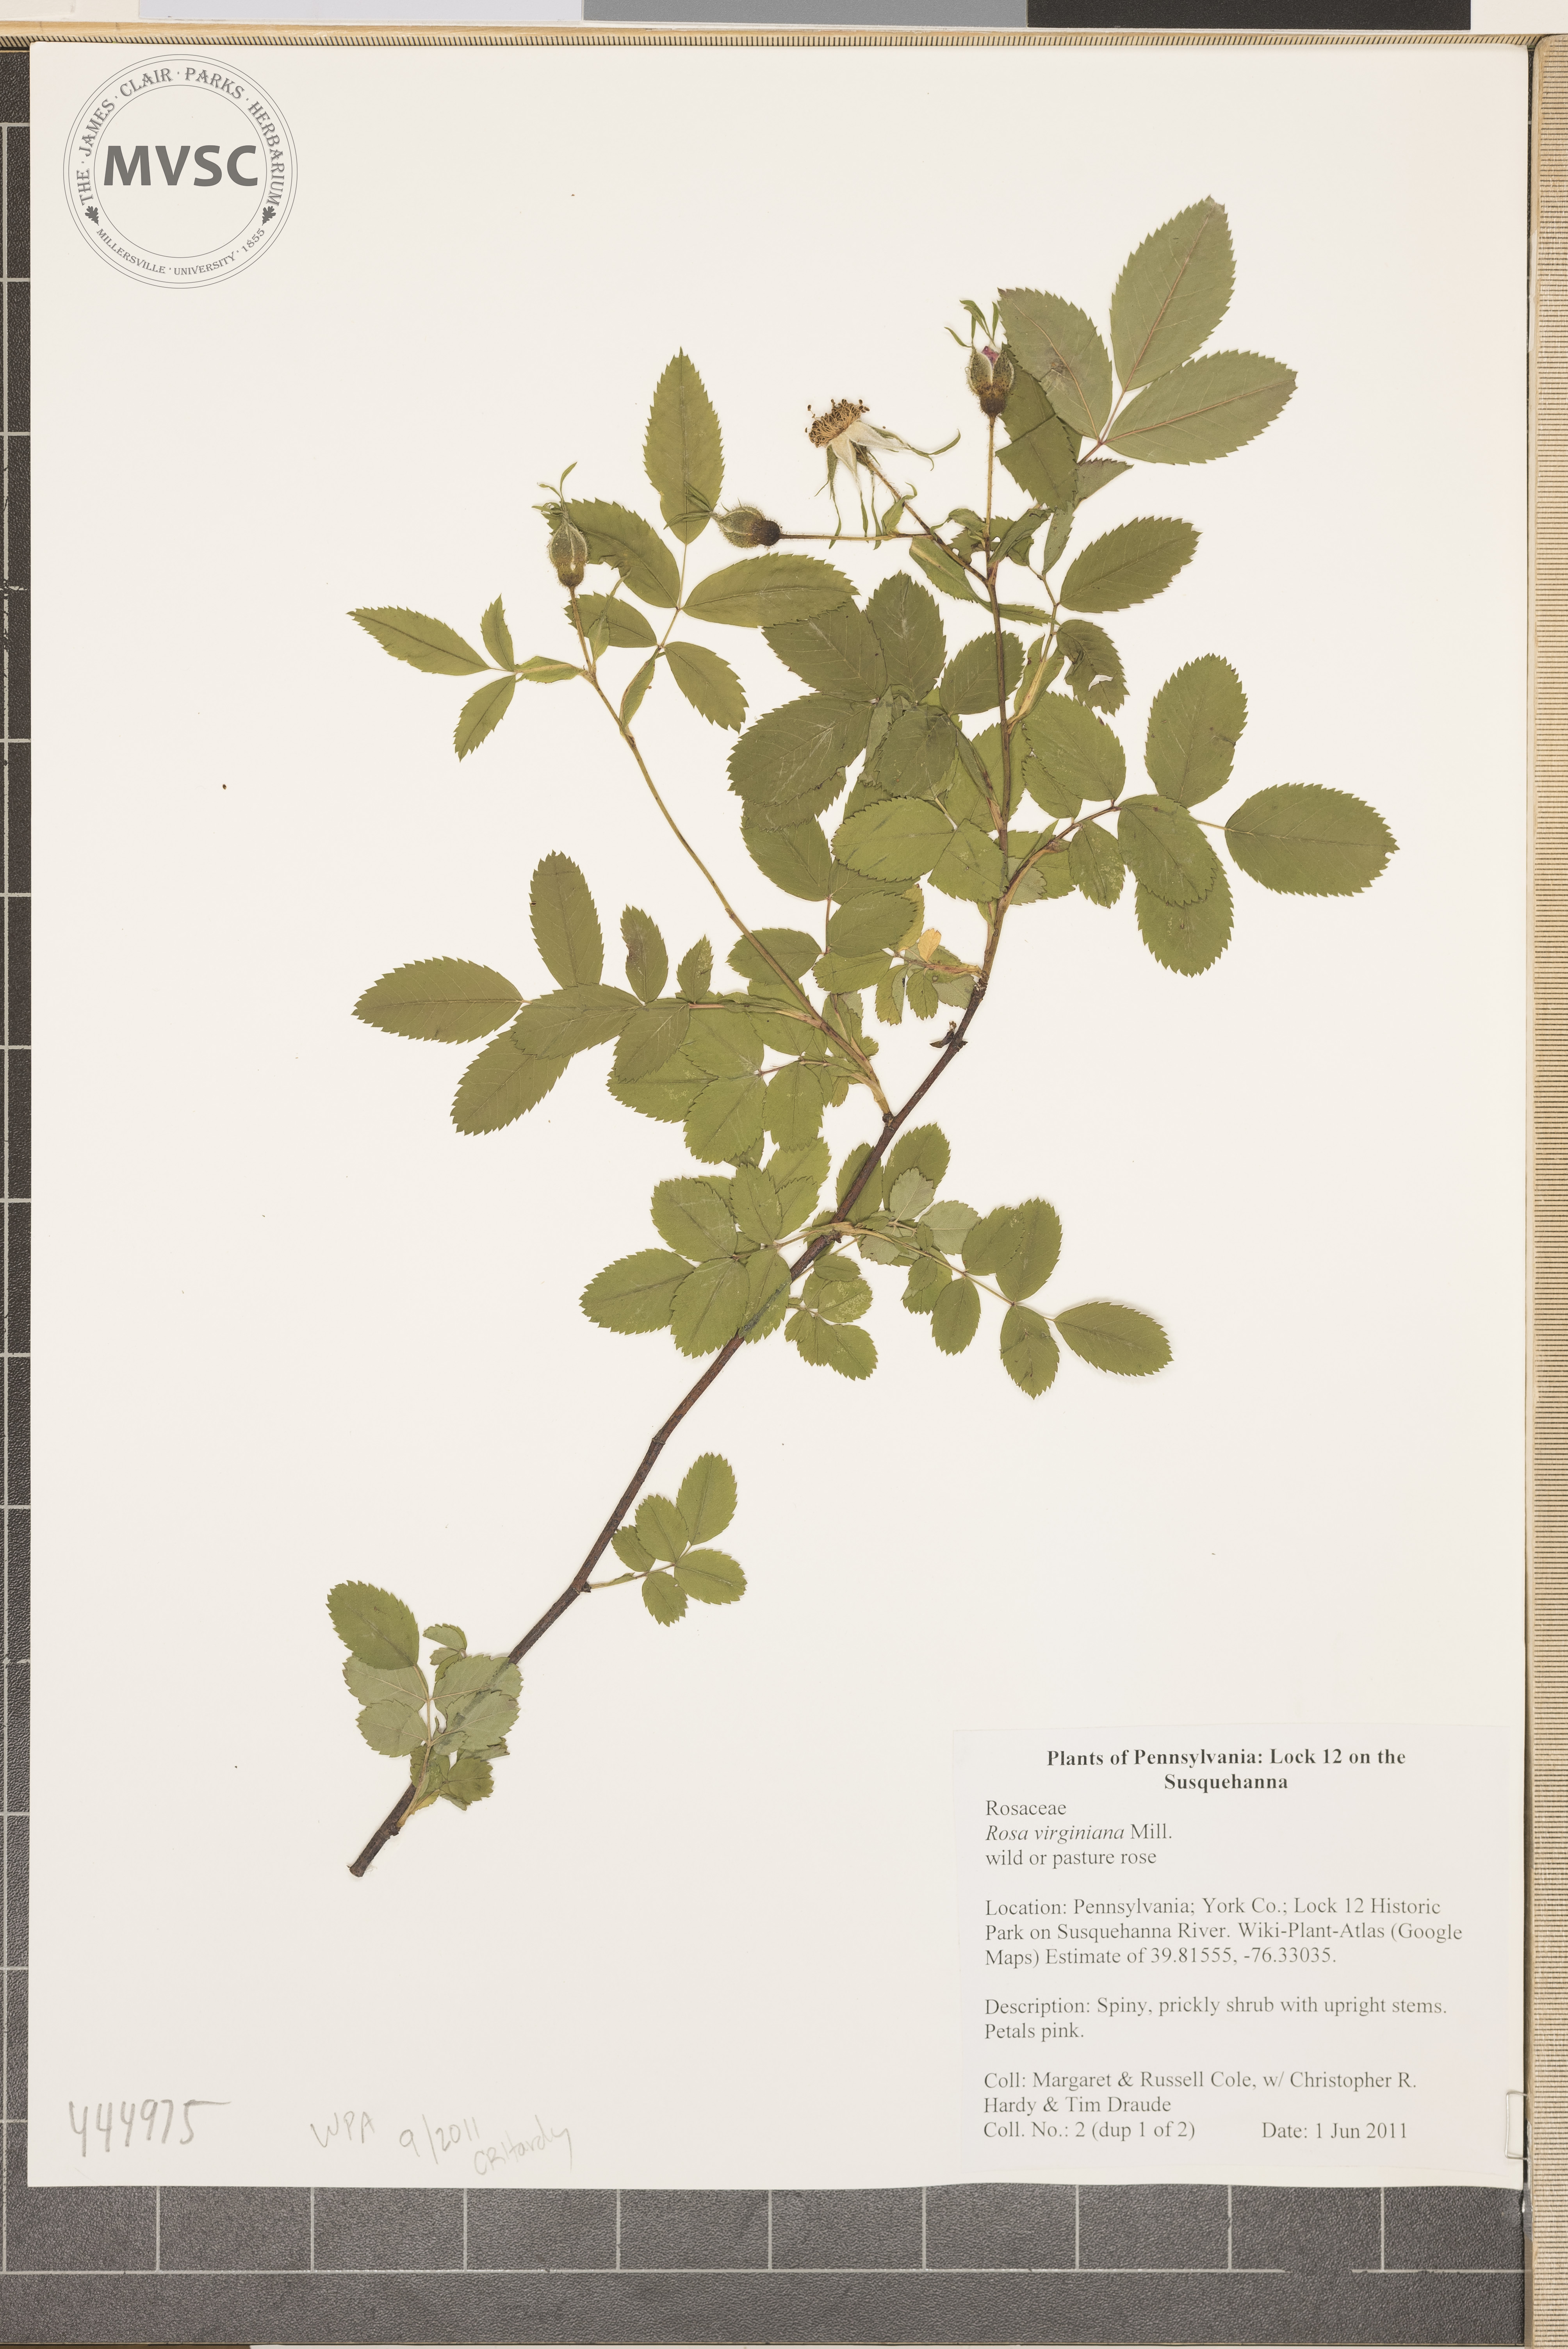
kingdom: Plantae
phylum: Tracheophyta
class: Magnoliopsida
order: Rosales
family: Rosaceae
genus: Rosa
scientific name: Rosa carolina
